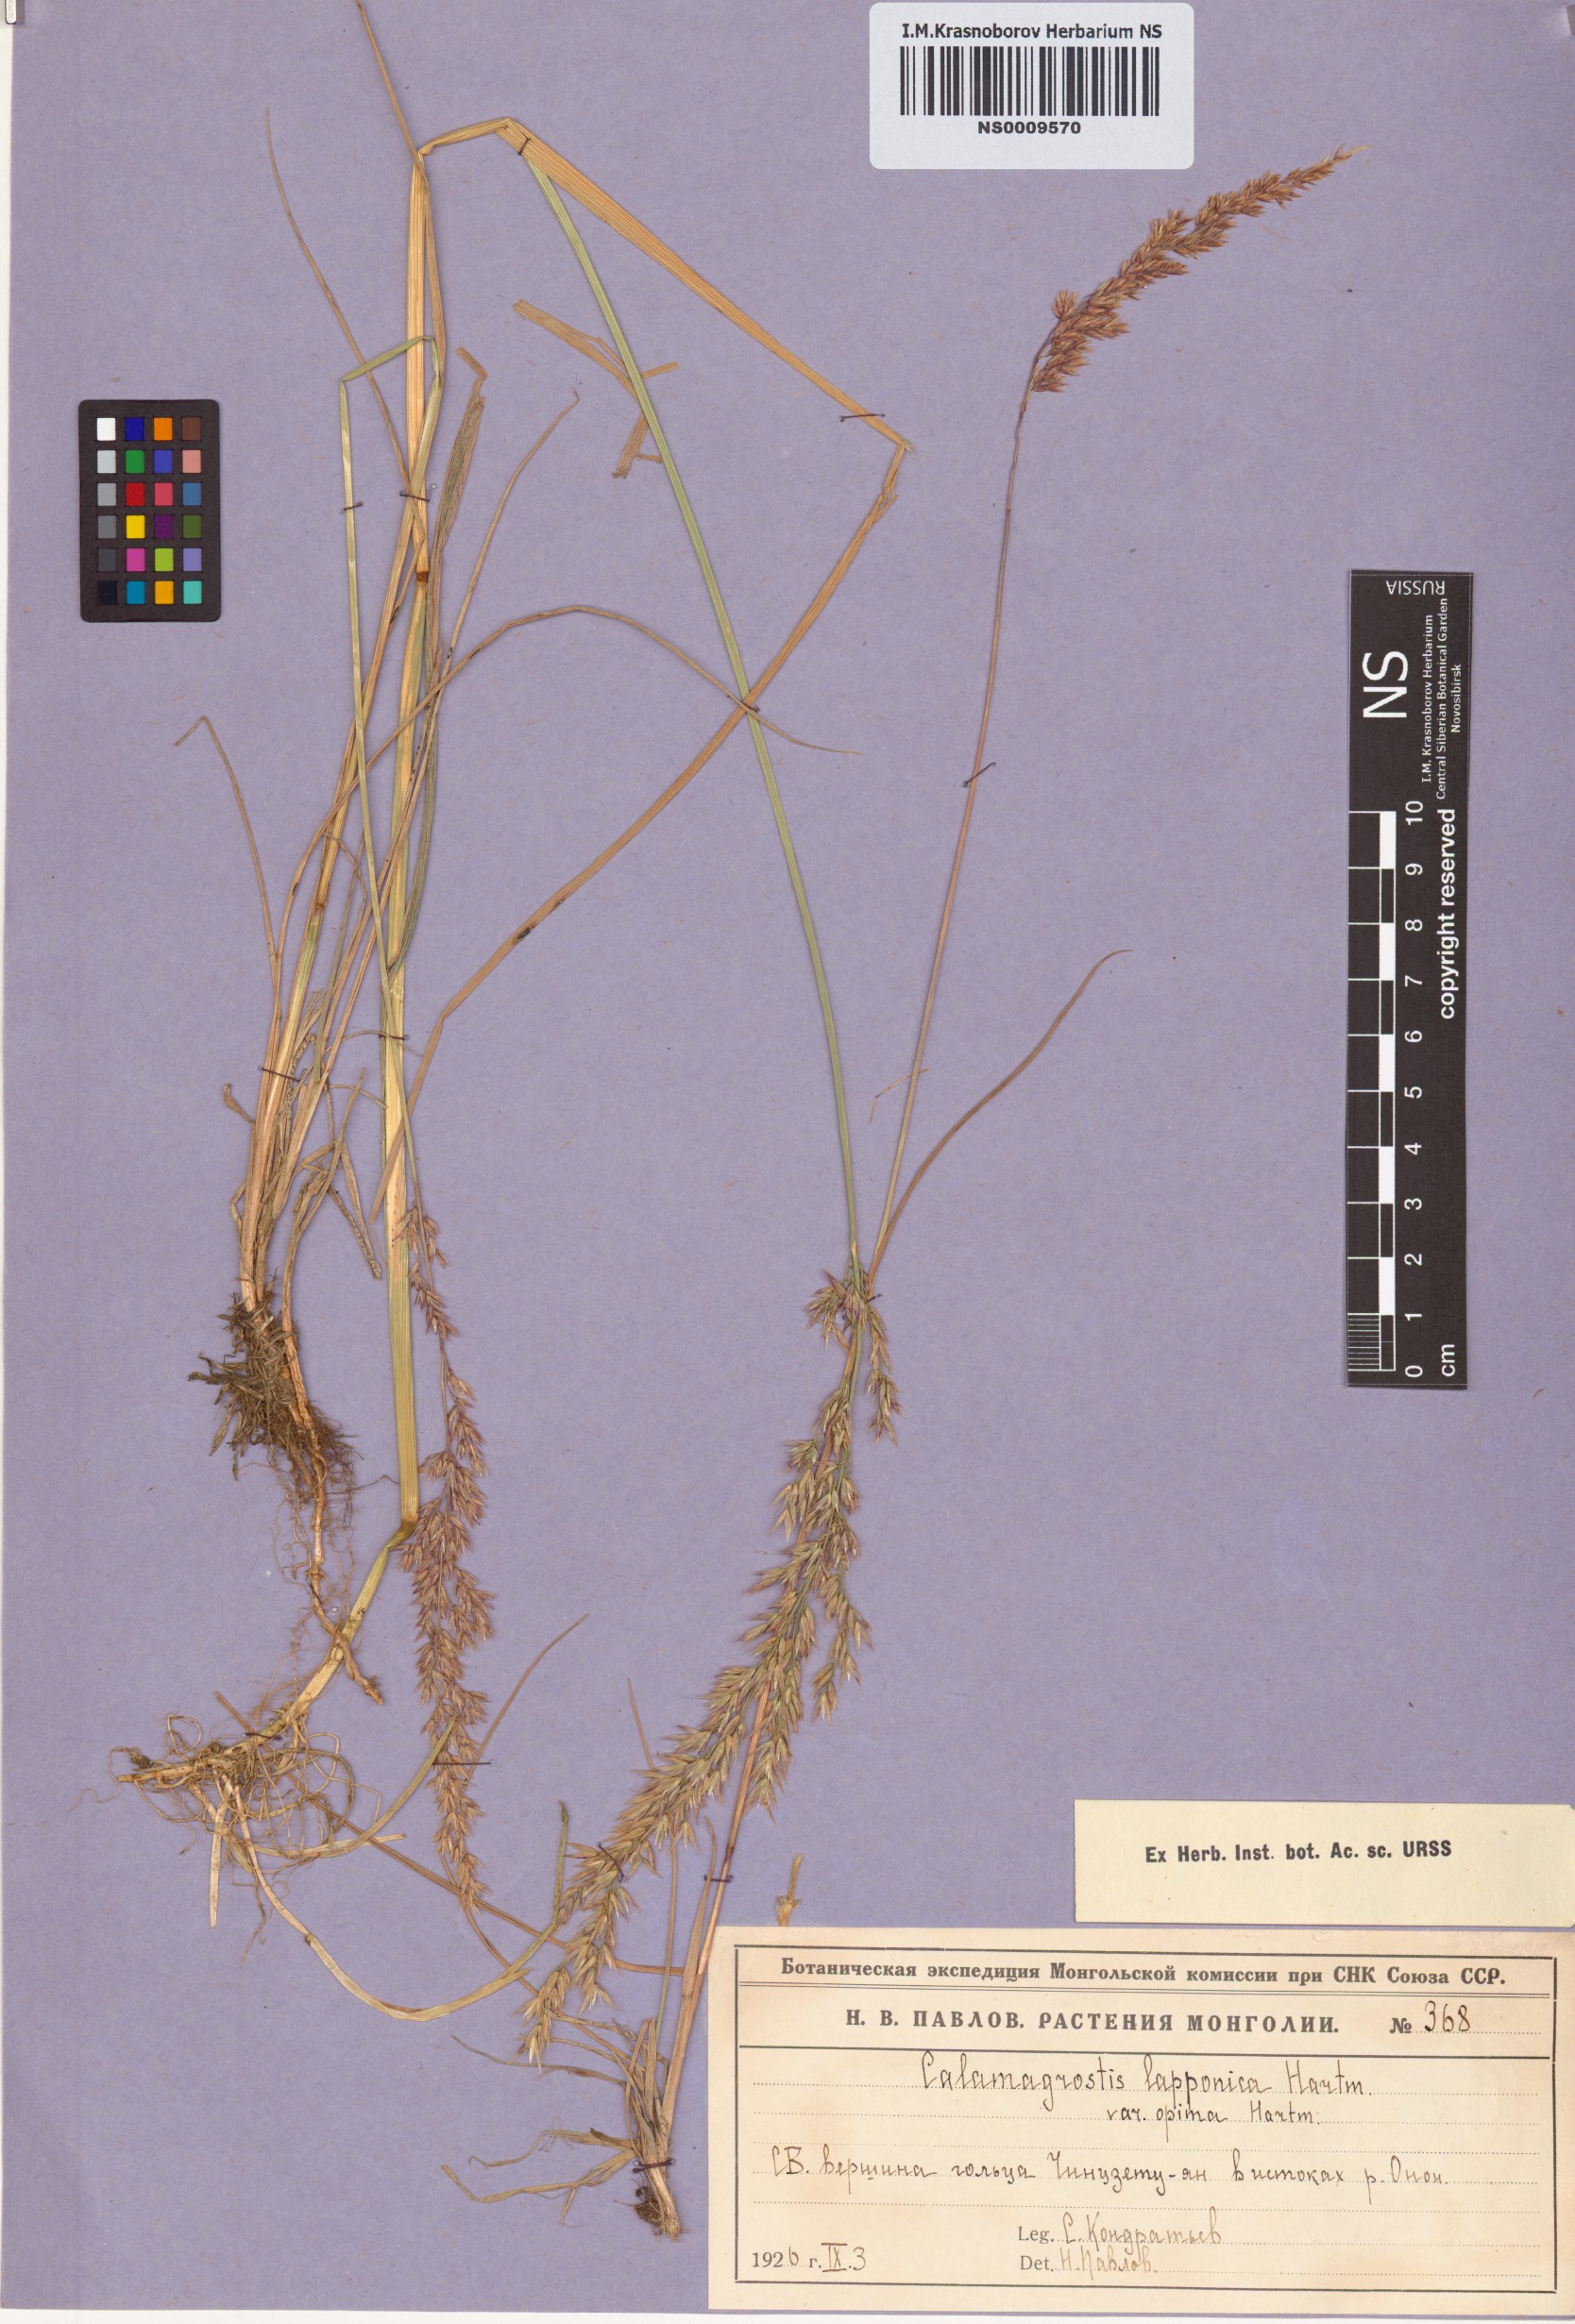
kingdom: Plantae
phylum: Tracheophyta
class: Liliopsida
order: Poales
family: Poaceae
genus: Calamagrostis
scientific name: Calamagrostis lapponica
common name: Lapland reedgrass
